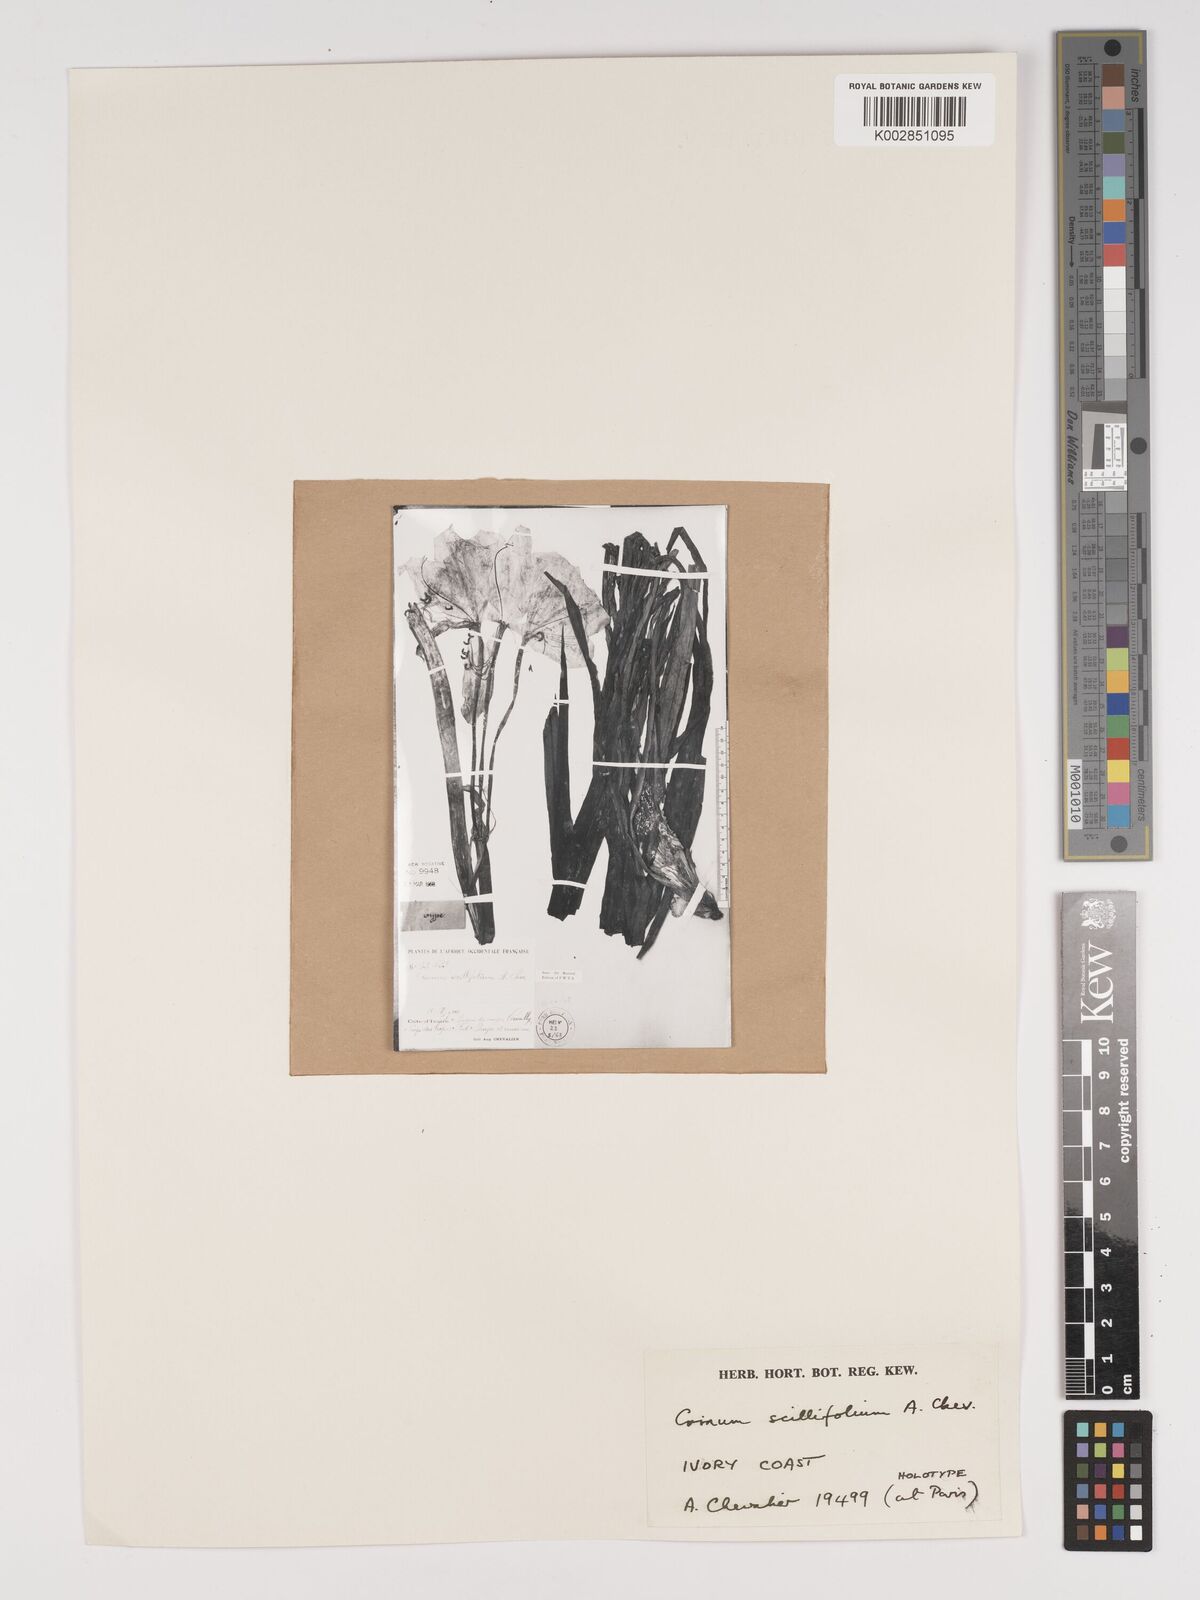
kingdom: Plantae
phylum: Tracheophyta
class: Liliopsida
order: Asparagales
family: Amaryllidaceae
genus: Crinum
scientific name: Crinum scillifolium
